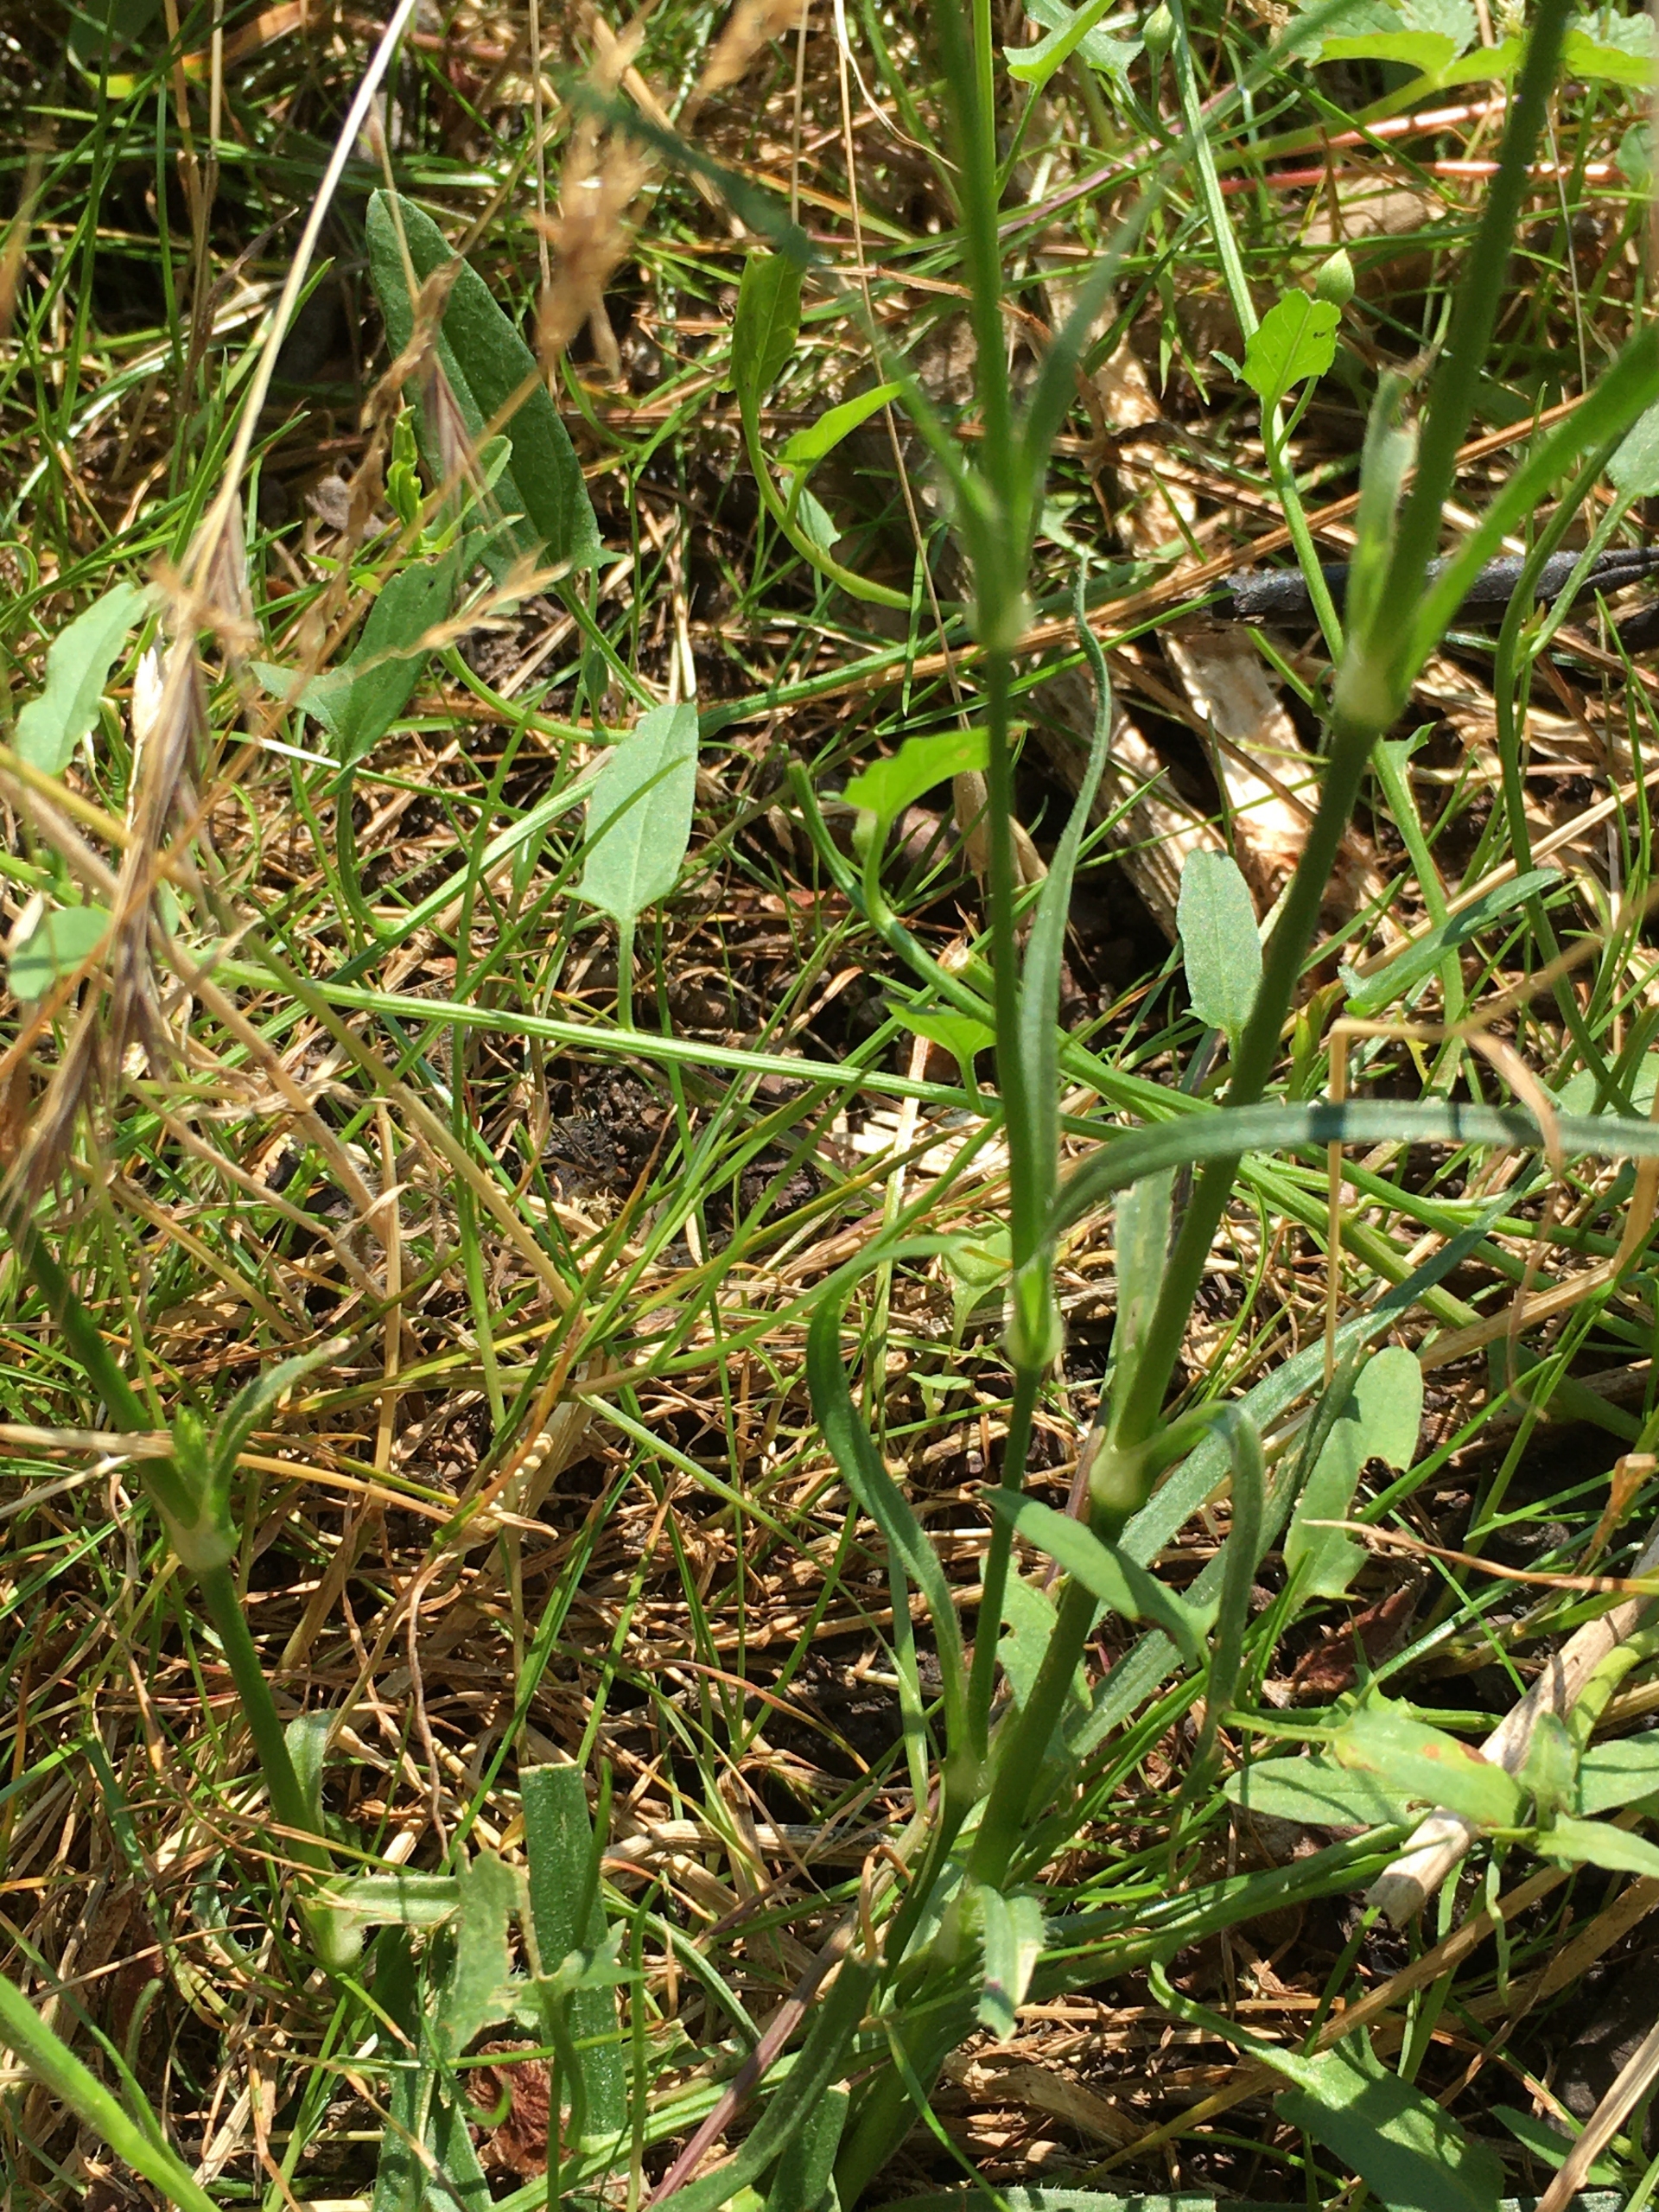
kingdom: Plantae
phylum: Tracheophyta
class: Magnoliopsida
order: Caryophyllales
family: Caryophyllaceae
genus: Dianthus
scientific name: Dianthus deltoides
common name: Bakke-nellike
